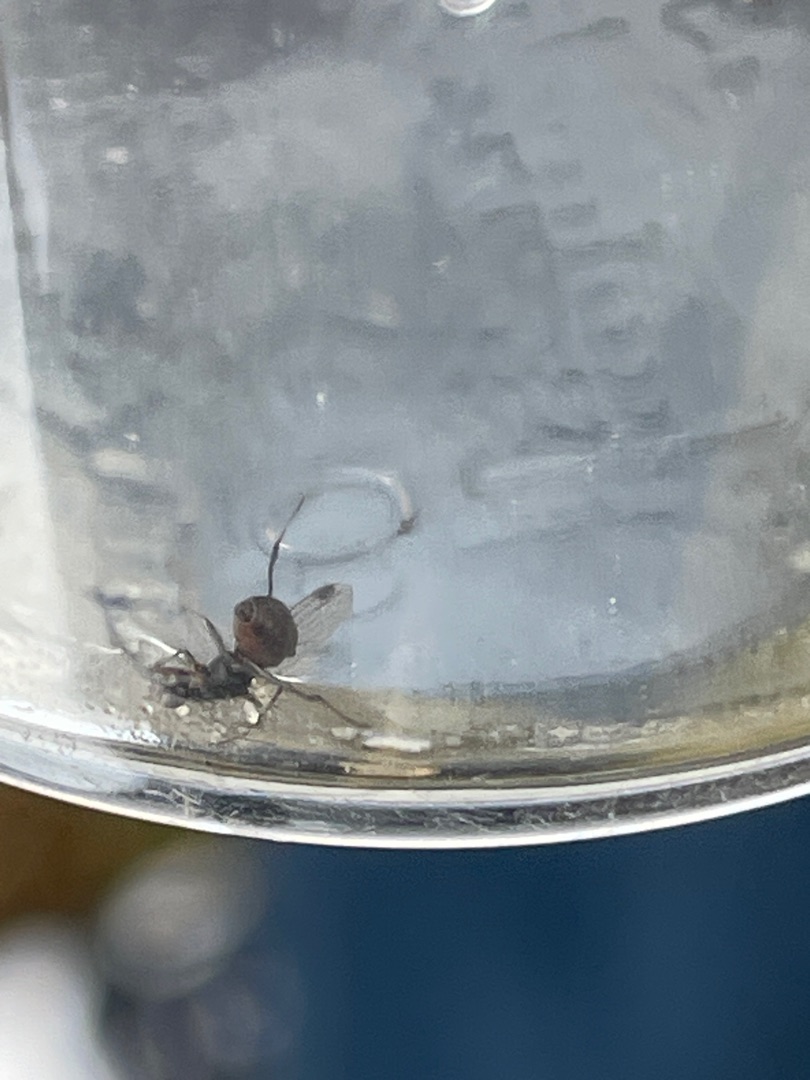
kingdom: Animalia
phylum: Arthropoda
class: Insecta
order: Diptera
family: Sepsidae
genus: Sepsis
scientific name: Sepsis
